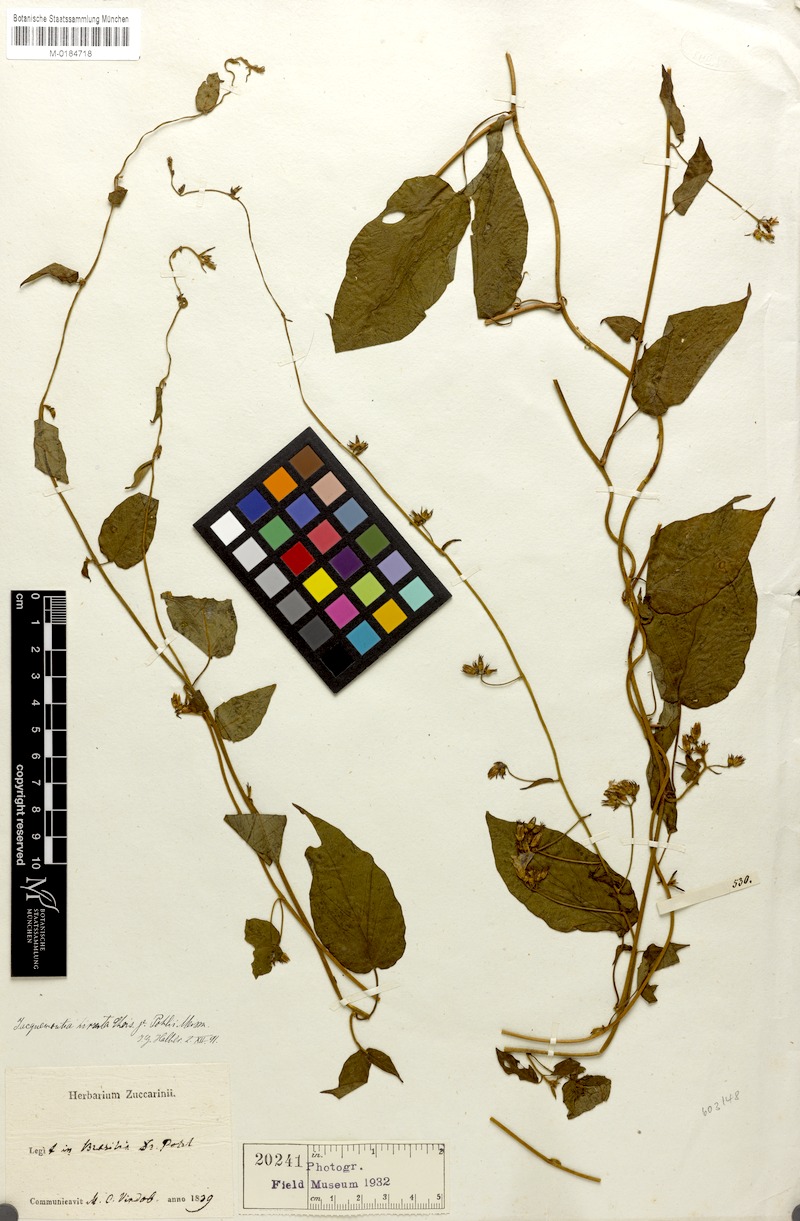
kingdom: Plantae
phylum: Tracheophyta
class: Magnoliopsida
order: Solanales
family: Convolvulaceae
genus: Jacquemontia
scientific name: Jacquemontia sphaerostigma
